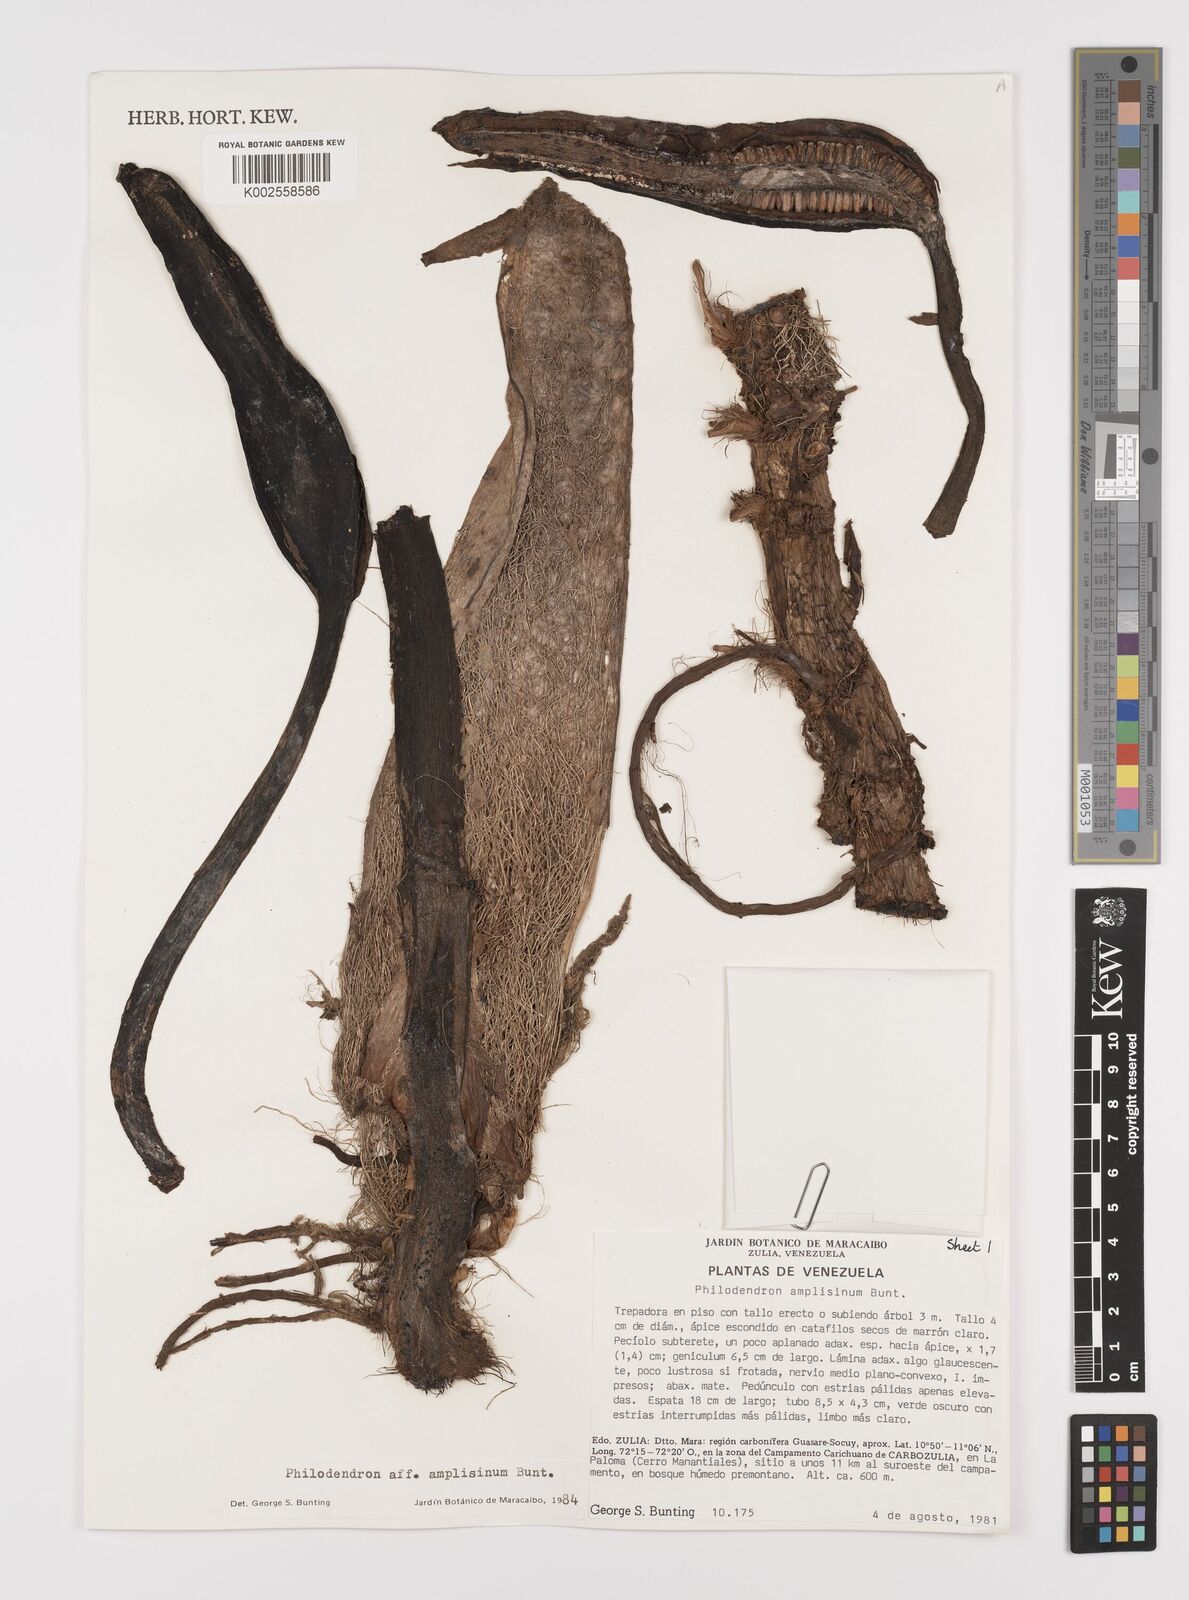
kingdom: Plantae
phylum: Tracheophyta
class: Liliopsida
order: Alismatales
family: Araceae
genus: Philodendron
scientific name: Philodendron amplisinum
